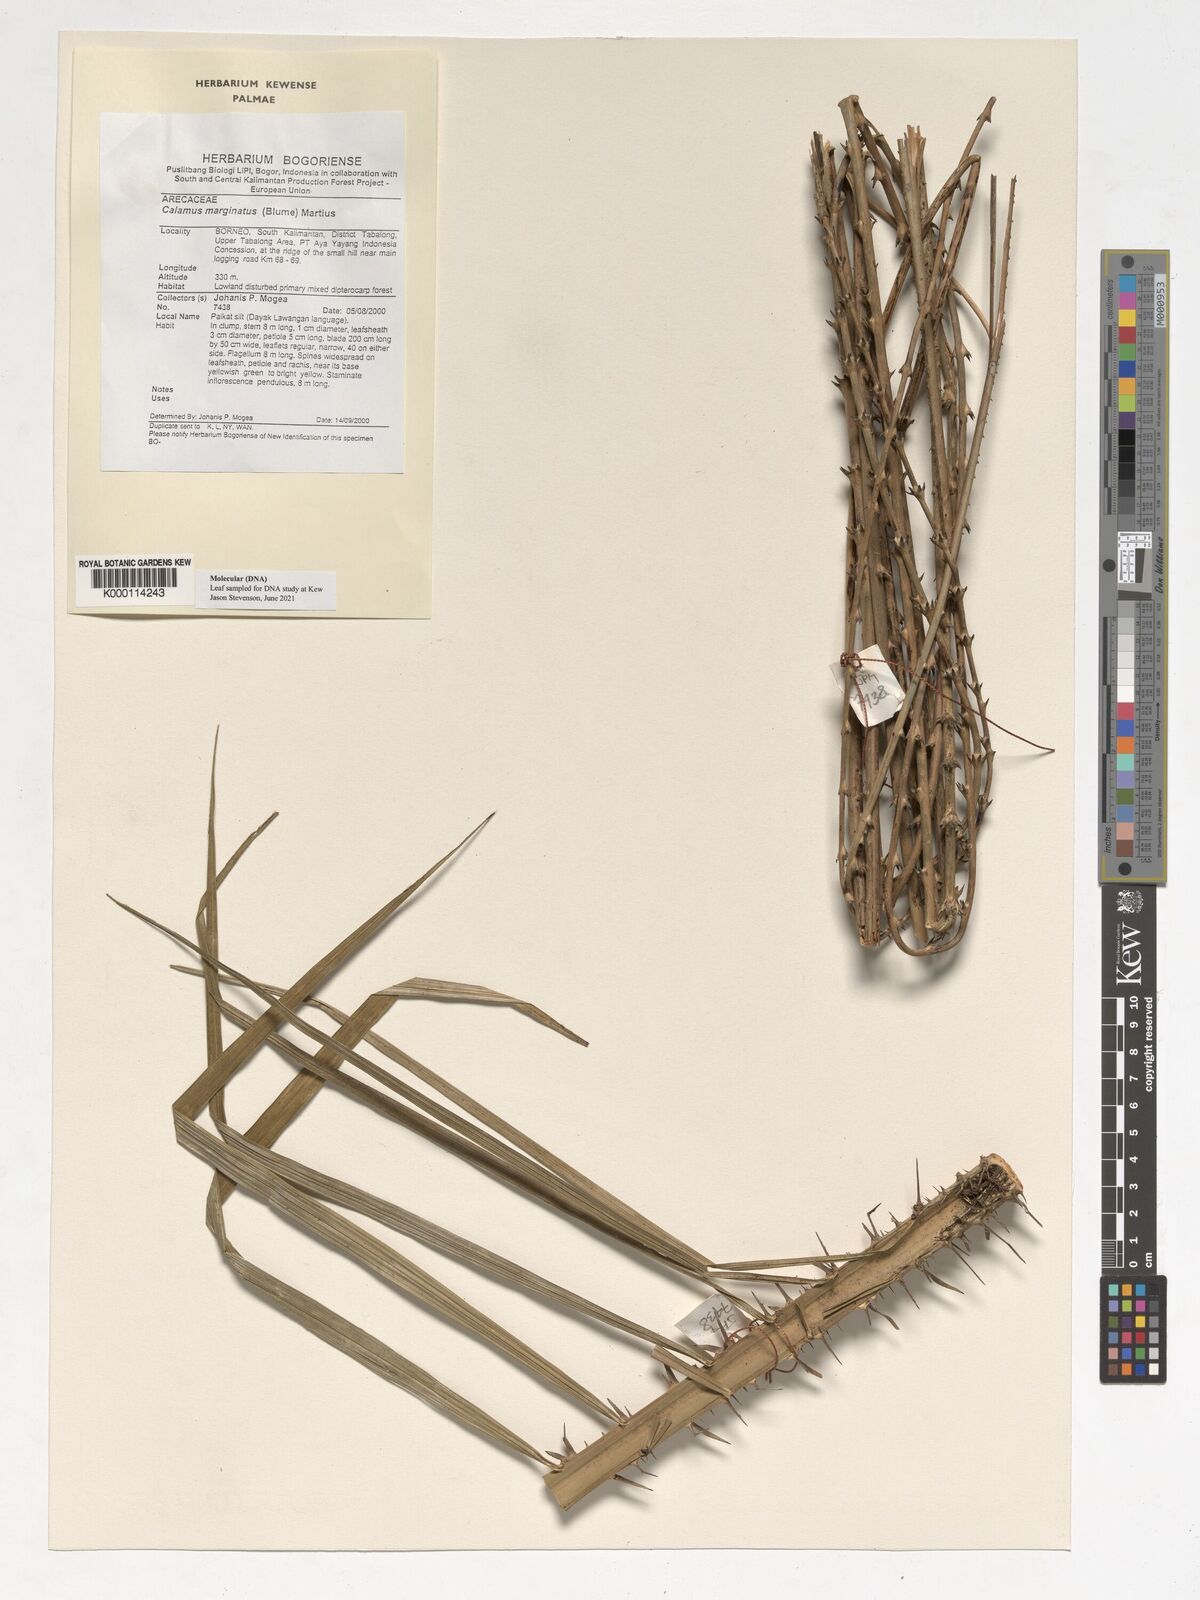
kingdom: Plantae
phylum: Tracheophyta
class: Liliopsida
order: Arecales
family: Arecaceae
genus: Calamus
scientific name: Calamus marginatus
